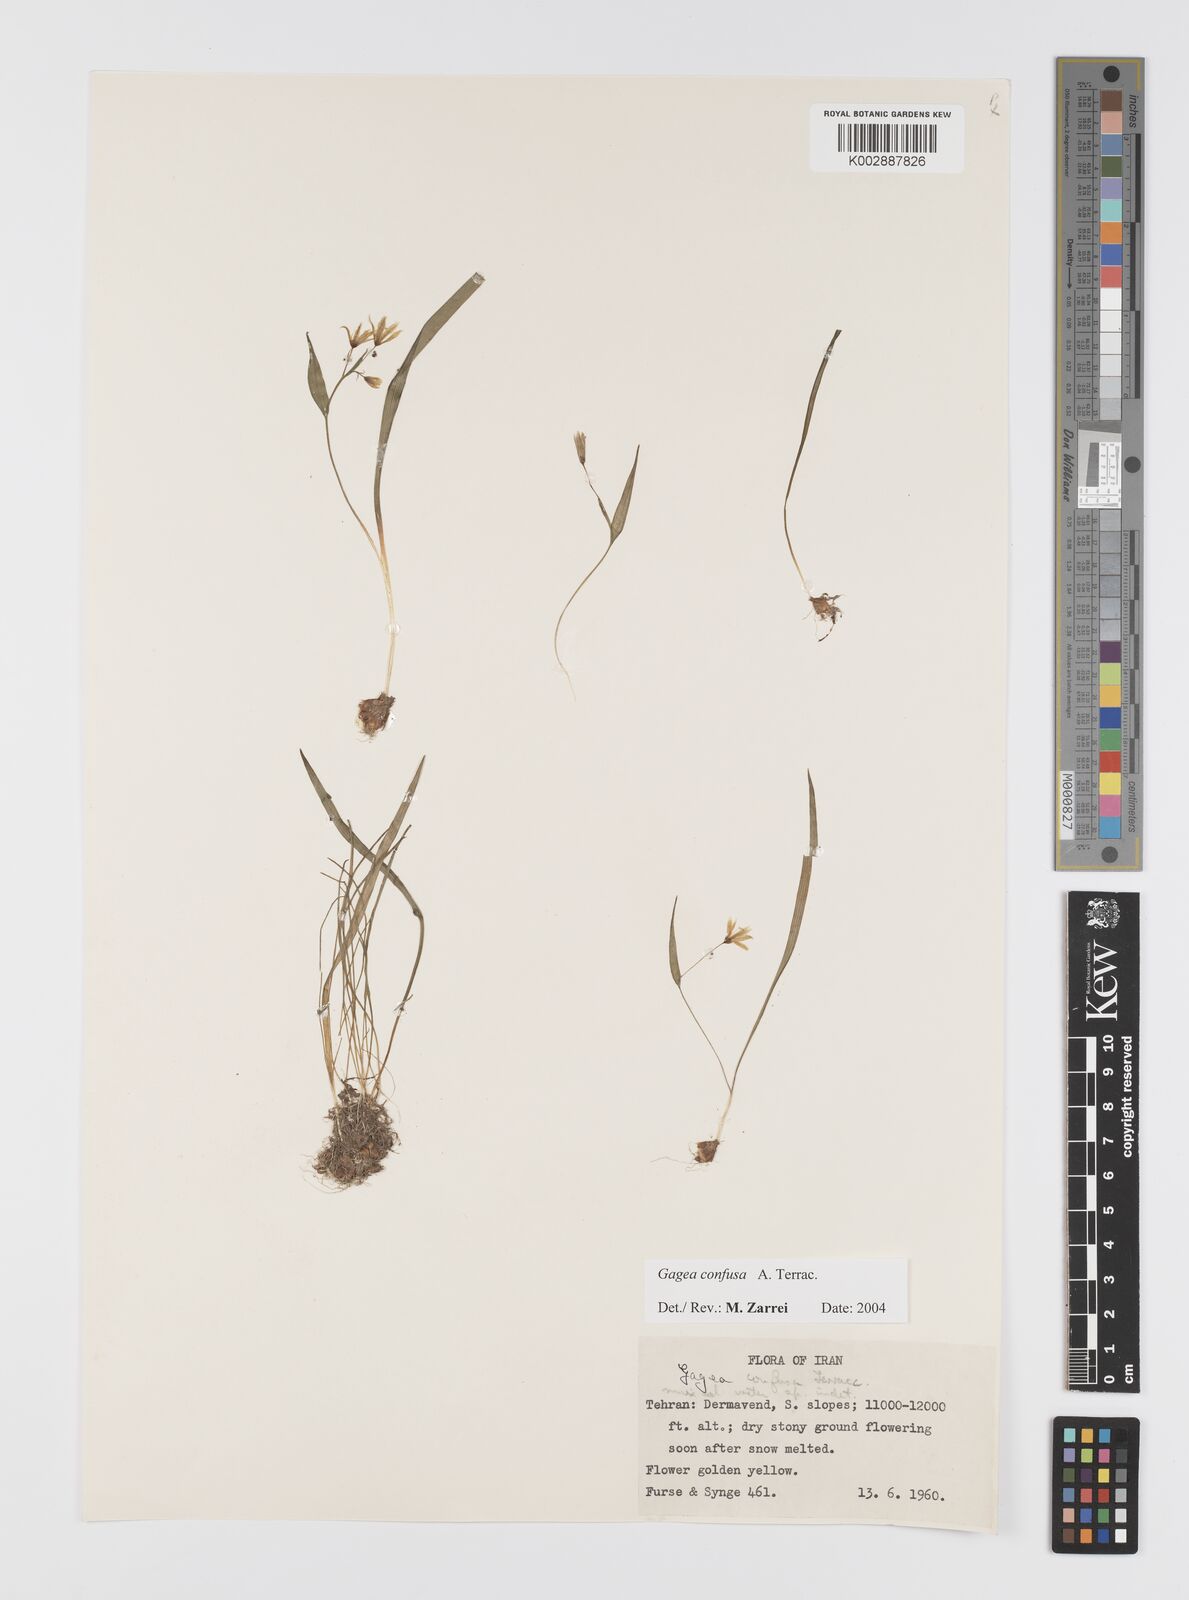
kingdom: Plantae
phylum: Tracheophyta
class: Liliopsida
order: Liliales
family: Liliaceae
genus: Gagea
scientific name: Gagea confusa
